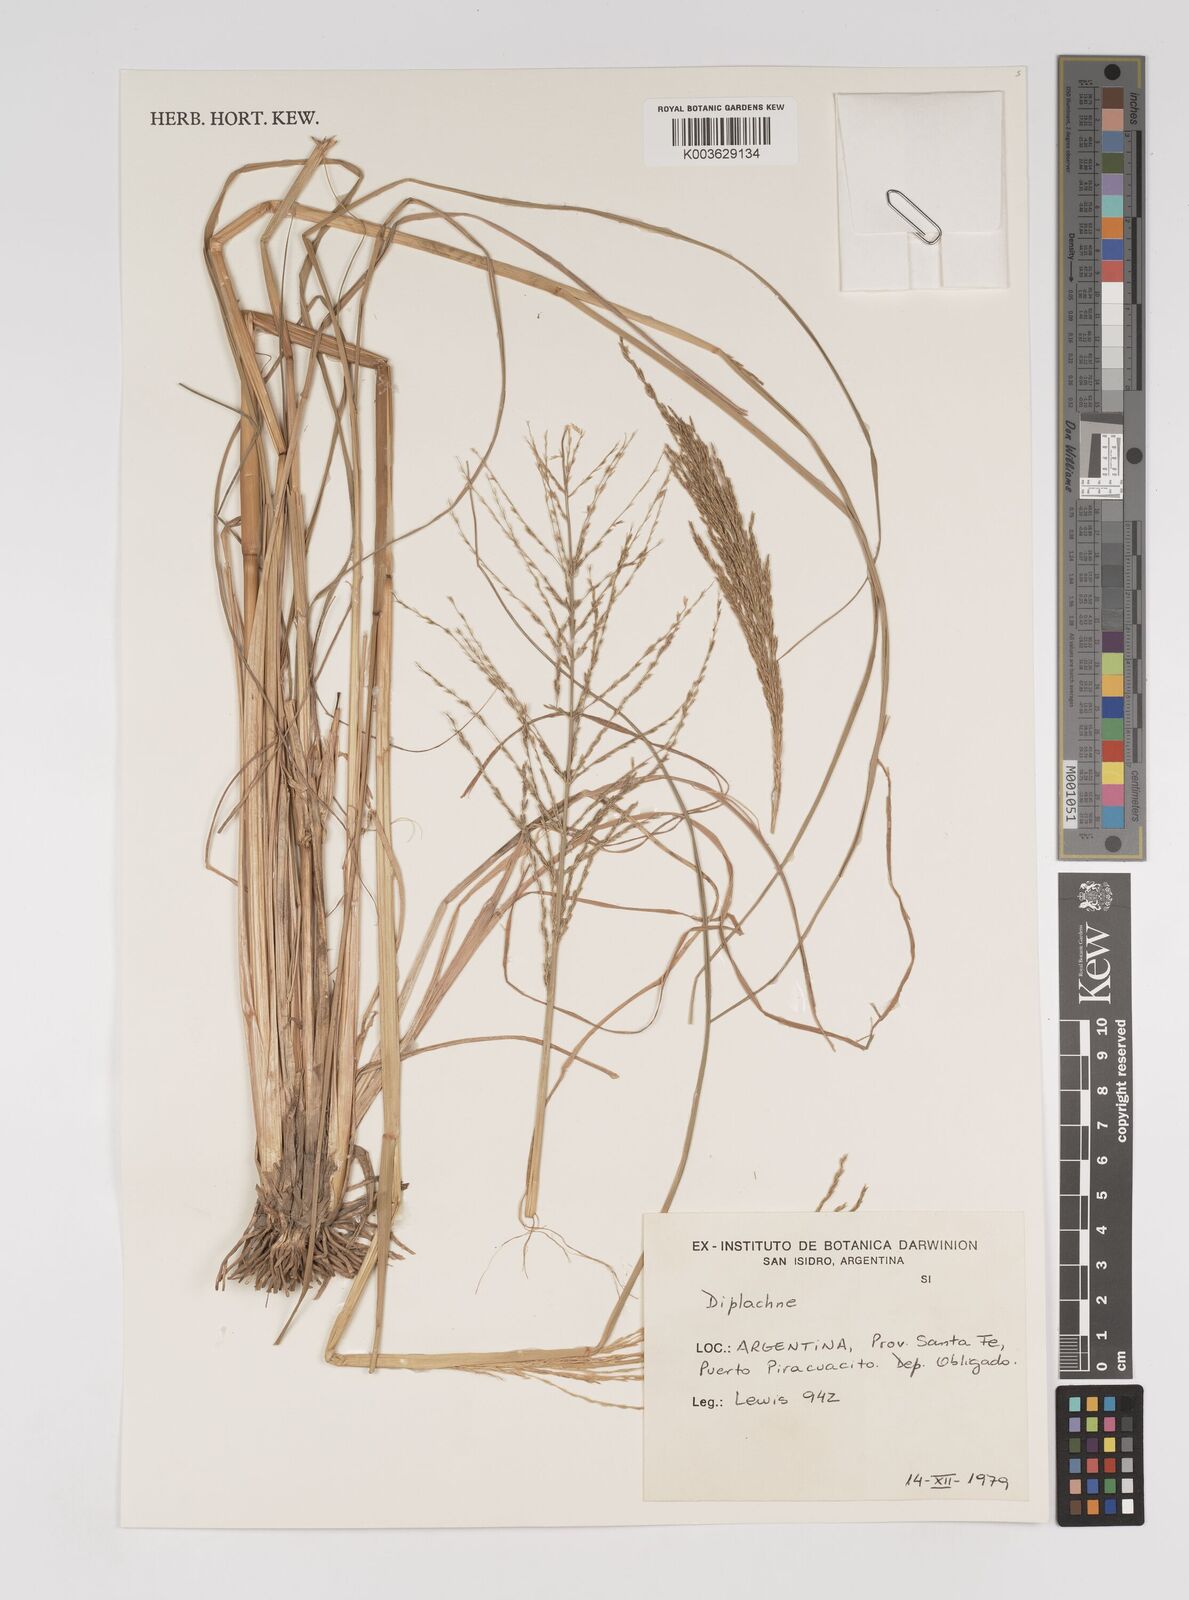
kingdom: Plantae
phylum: Tracheophyta
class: Liliopsida
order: Poales
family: Poaceae
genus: Diplachne
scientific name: Diplachne fusca
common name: Brown beetle grass
